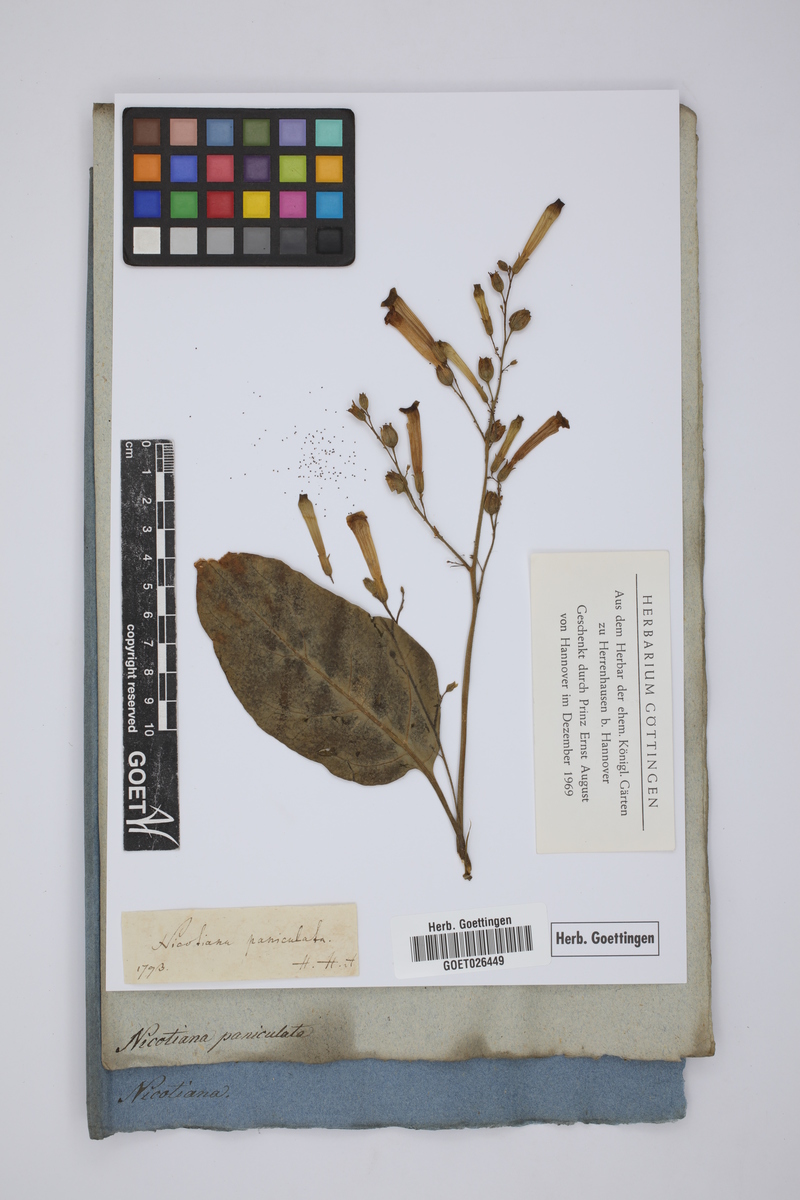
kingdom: Plantae
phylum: Tracheophyta
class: Magnoliopsida
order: Solanales
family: Solanaceae
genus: Nicotiana
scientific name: Nicotiana paniculata
